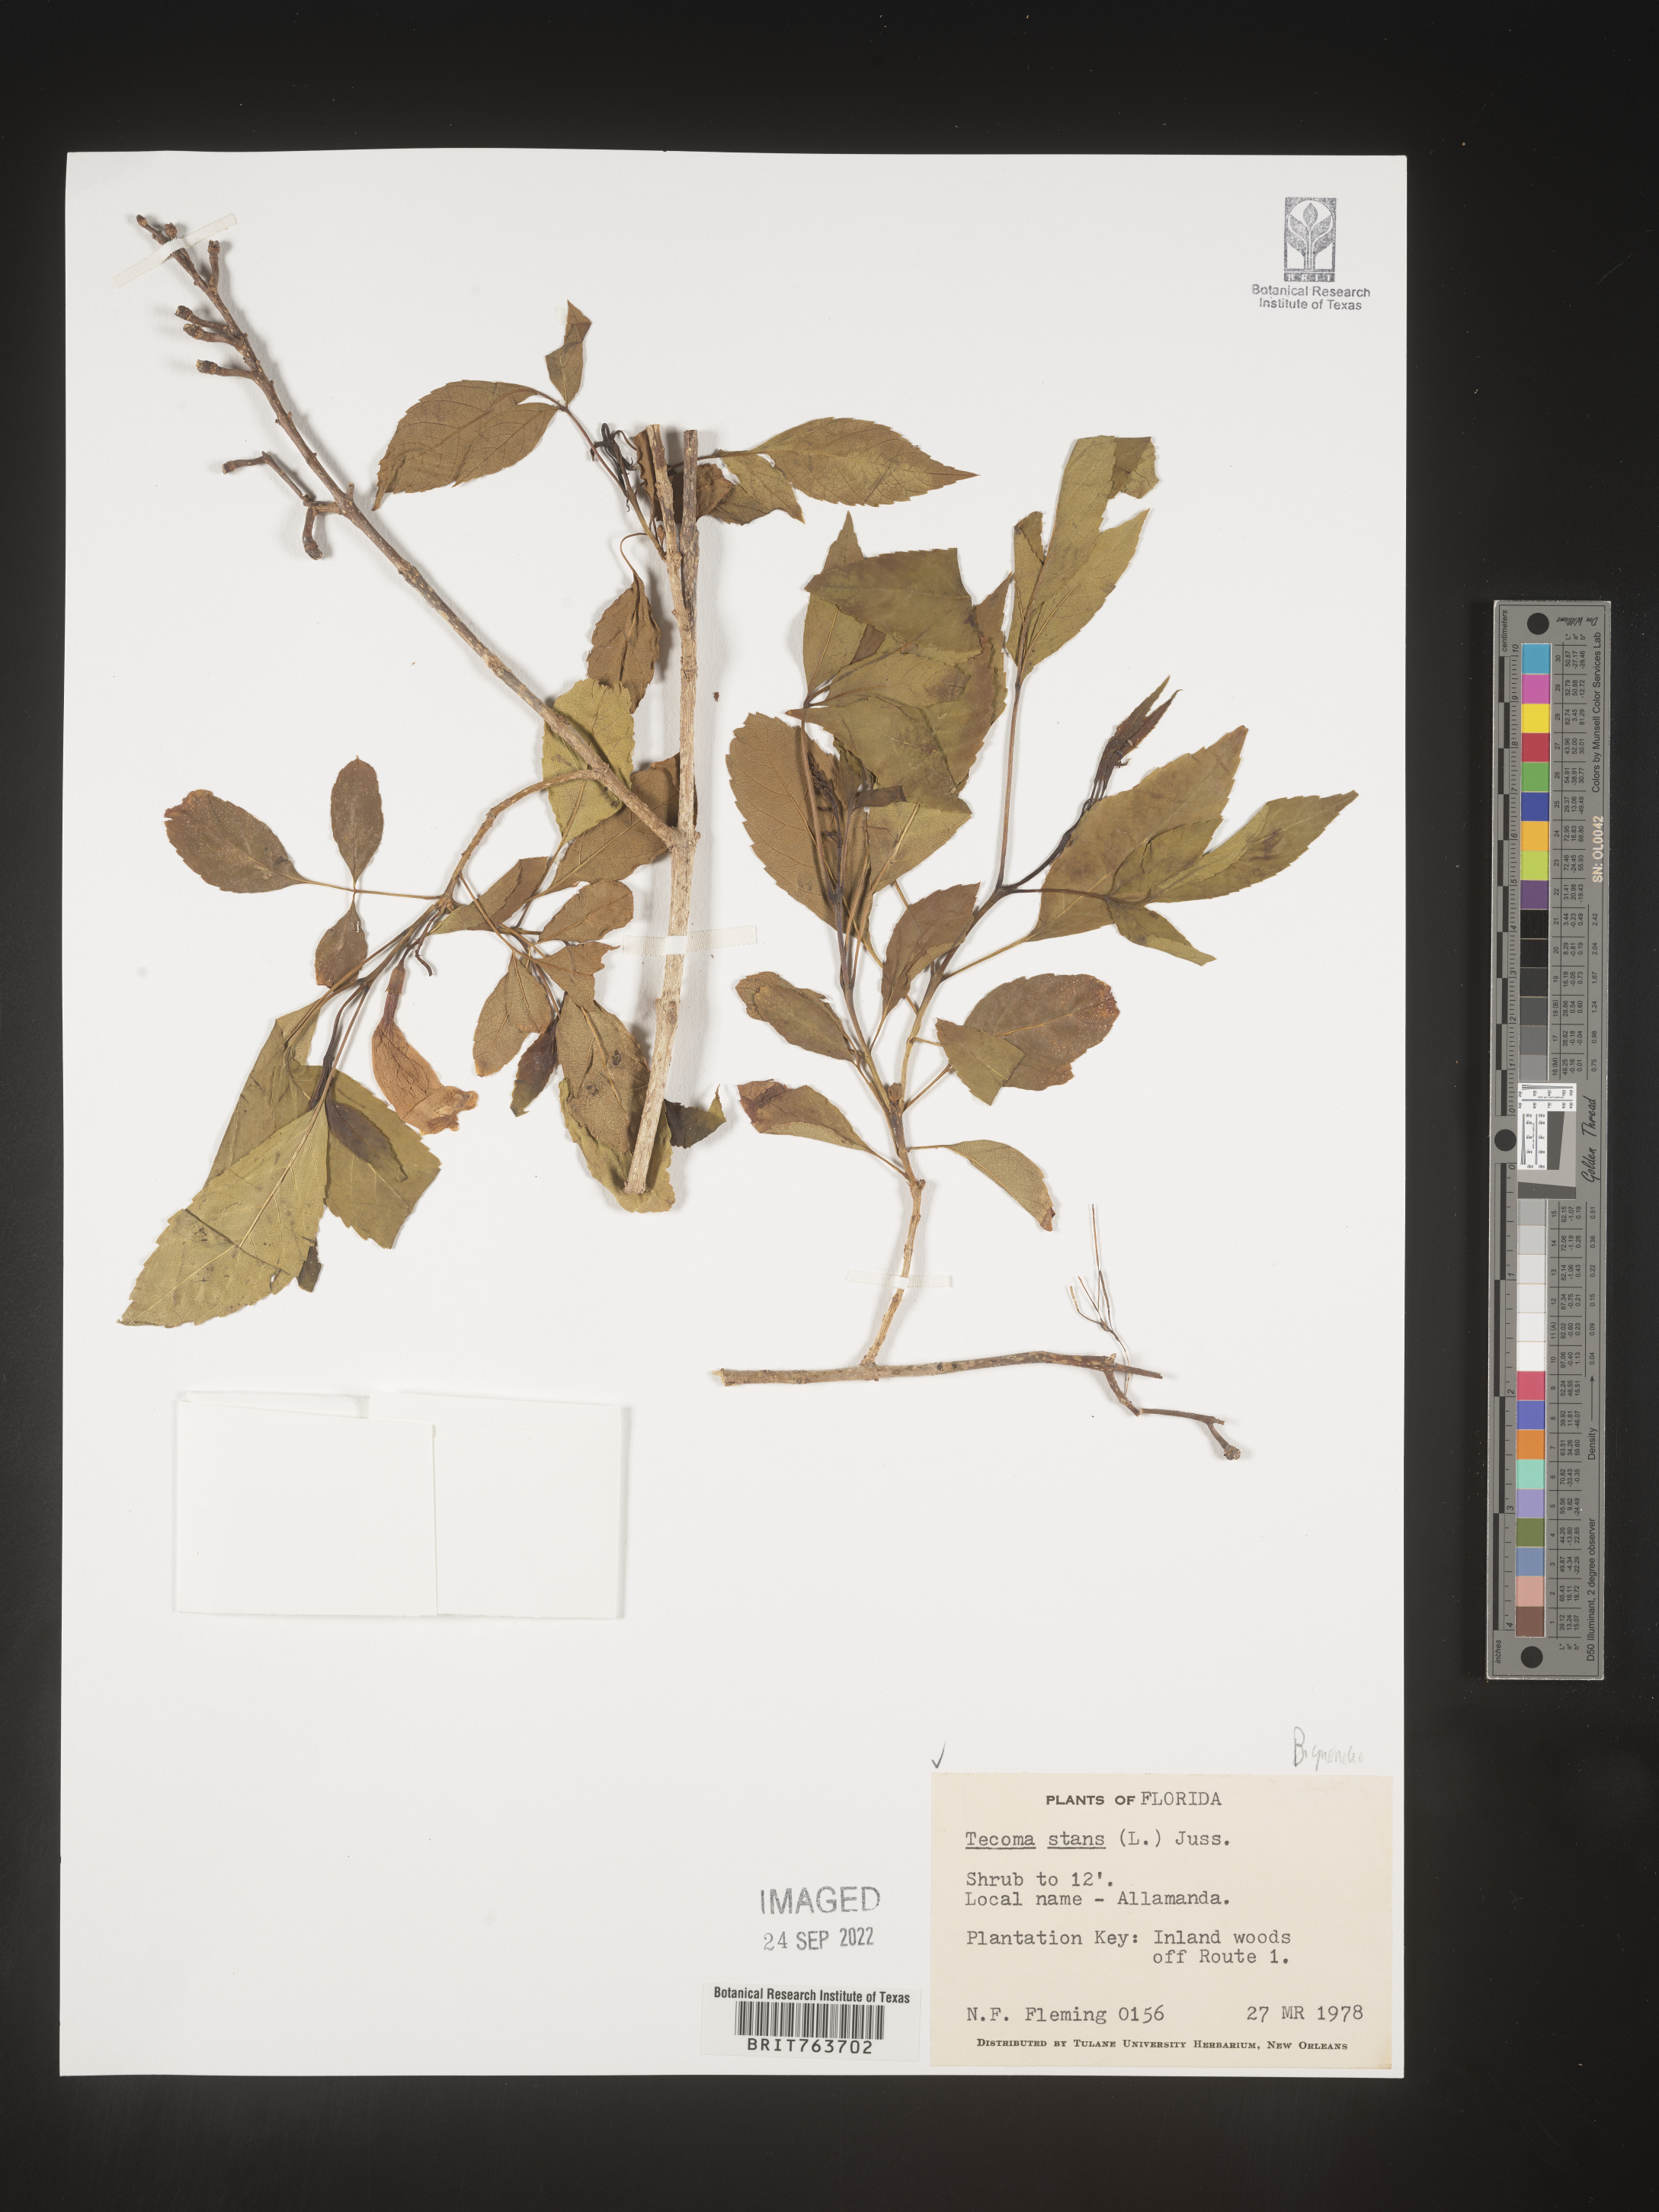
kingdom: Plantae
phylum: Tracheophyta
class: Magnoliopsida
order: Lamiales
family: Bignoniaceae
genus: Tecoma
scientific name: Tecoma
